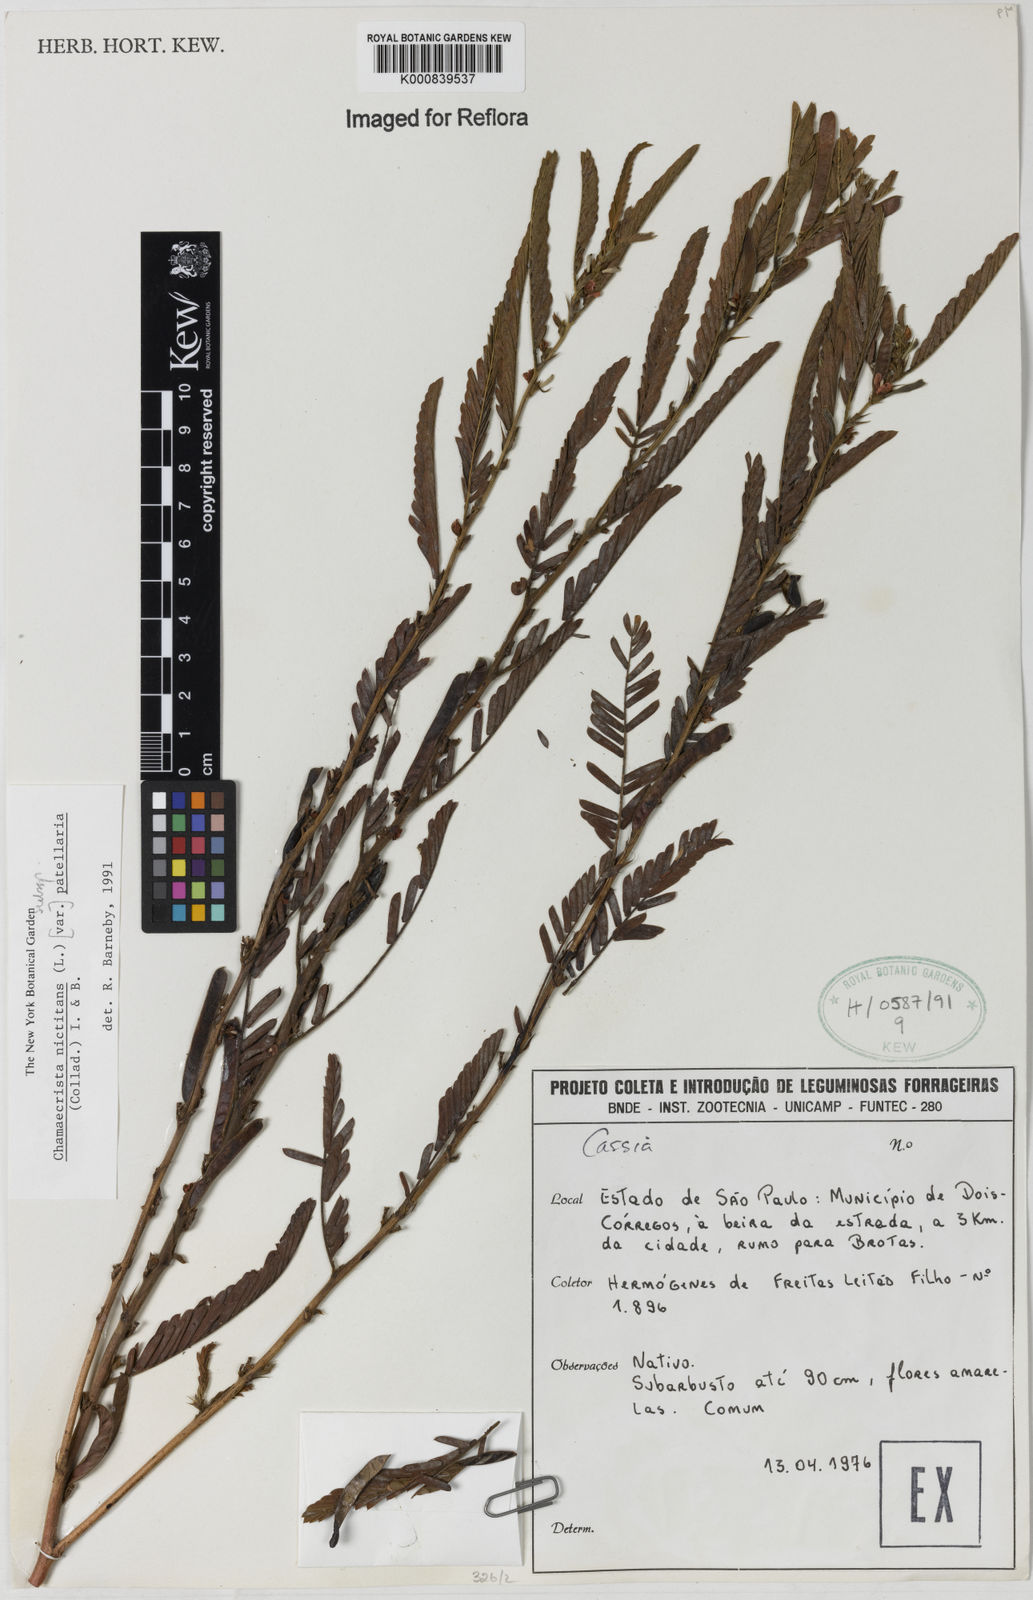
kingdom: Plantae
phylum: Tracheophyta
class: Magnoliopsida
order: Fabales
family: Fabaceae
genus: Chamaecrista
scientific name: Chamaecrista nictitans
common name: Sensitive cassia
